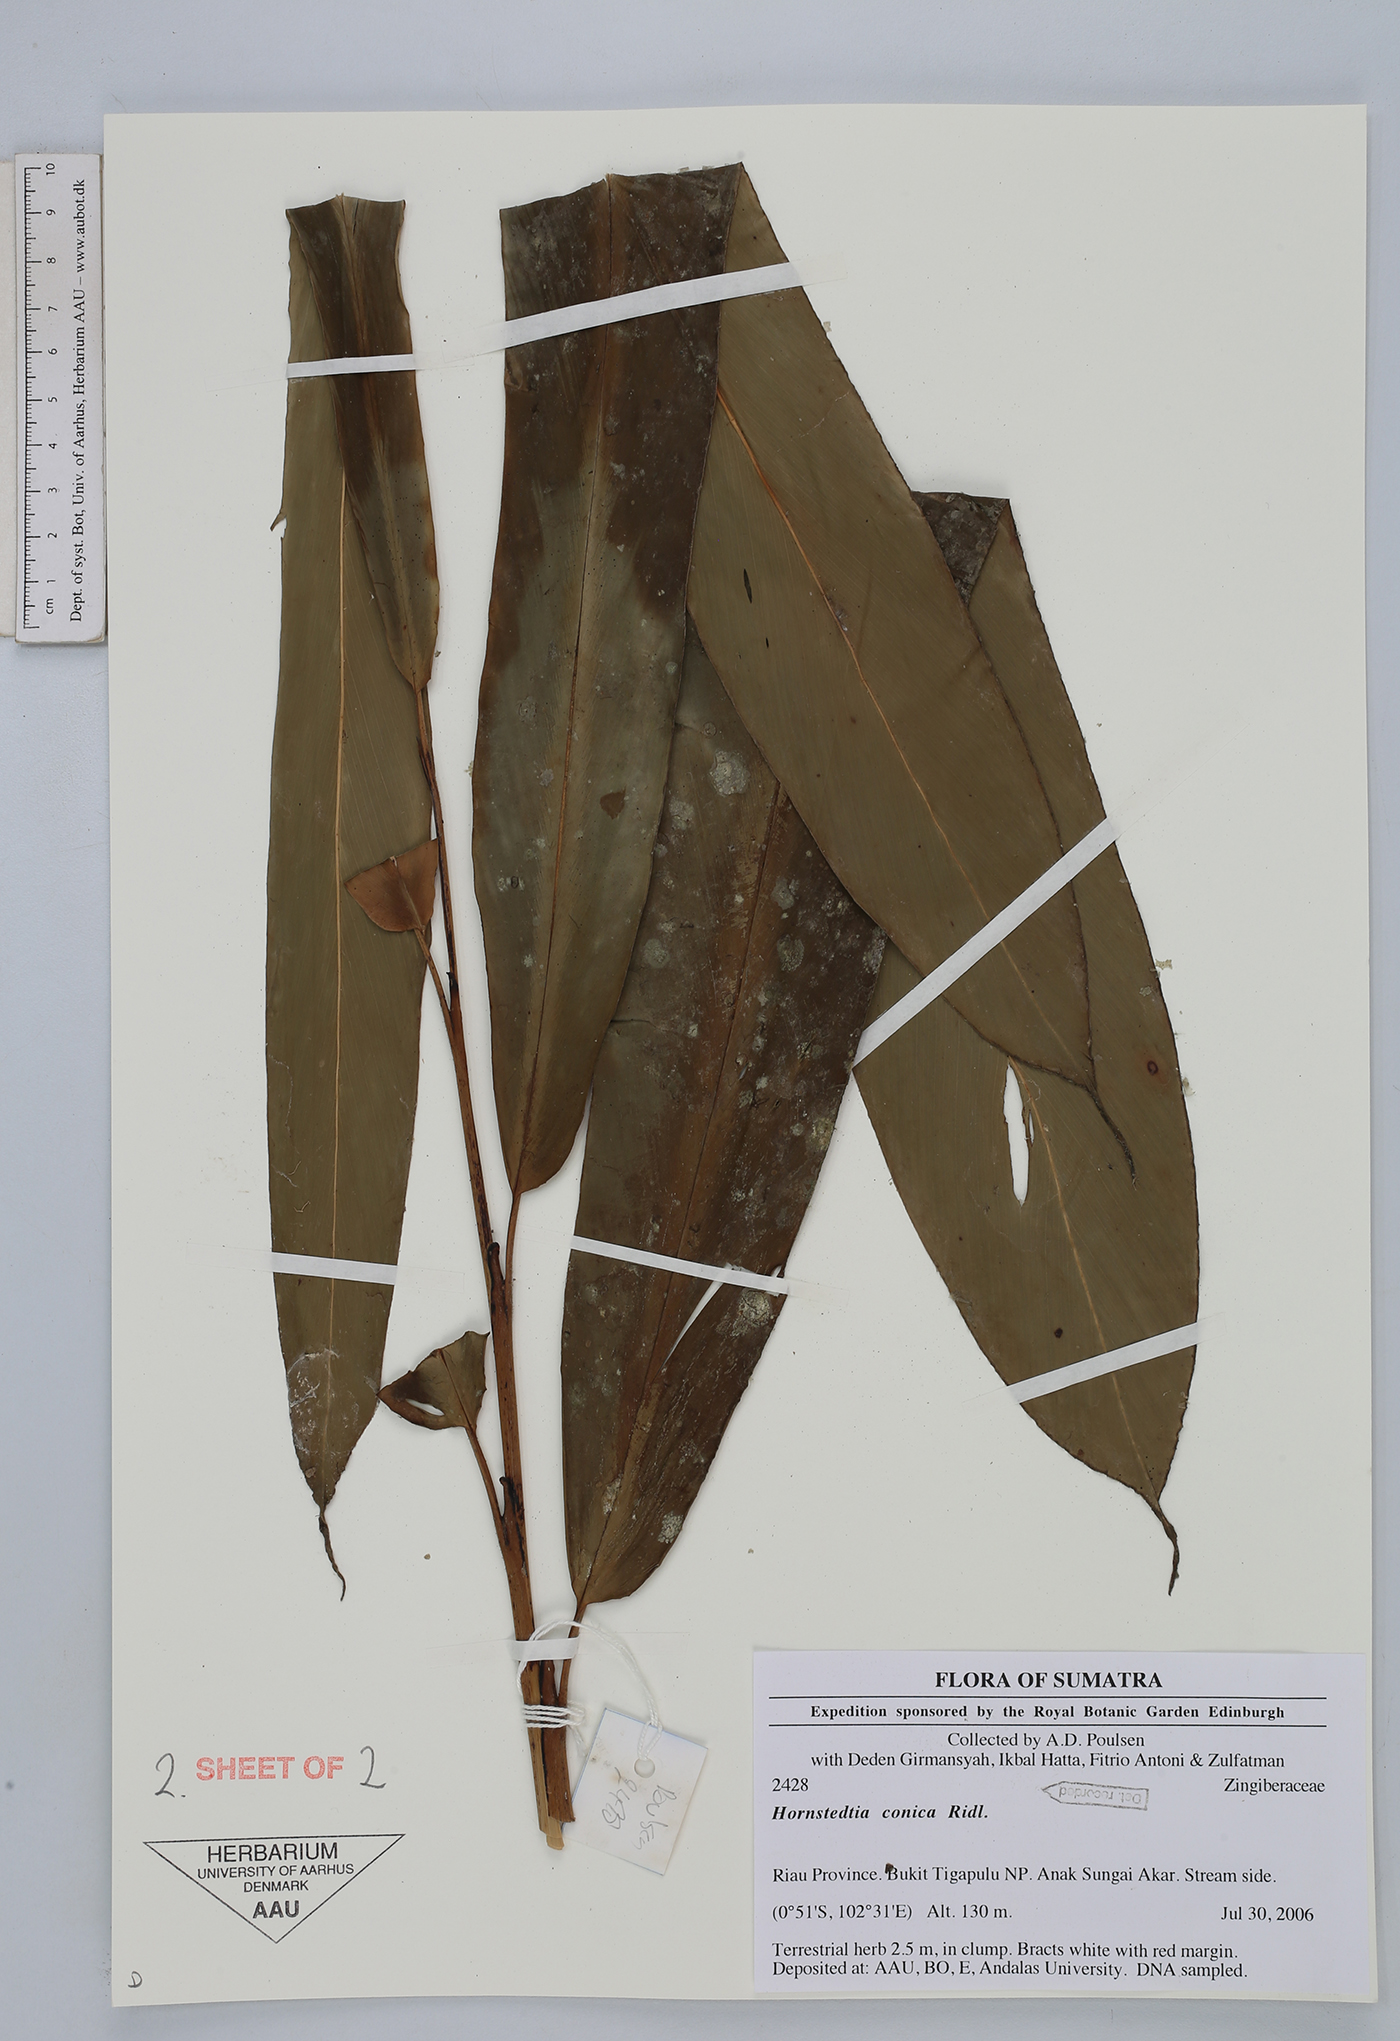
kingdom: Plantae
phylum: Tracheophyta
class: Liliopsida
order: Zingiberales
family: Zingiberaceae
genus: Hornstedtia
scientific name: Hornstedtia conica
